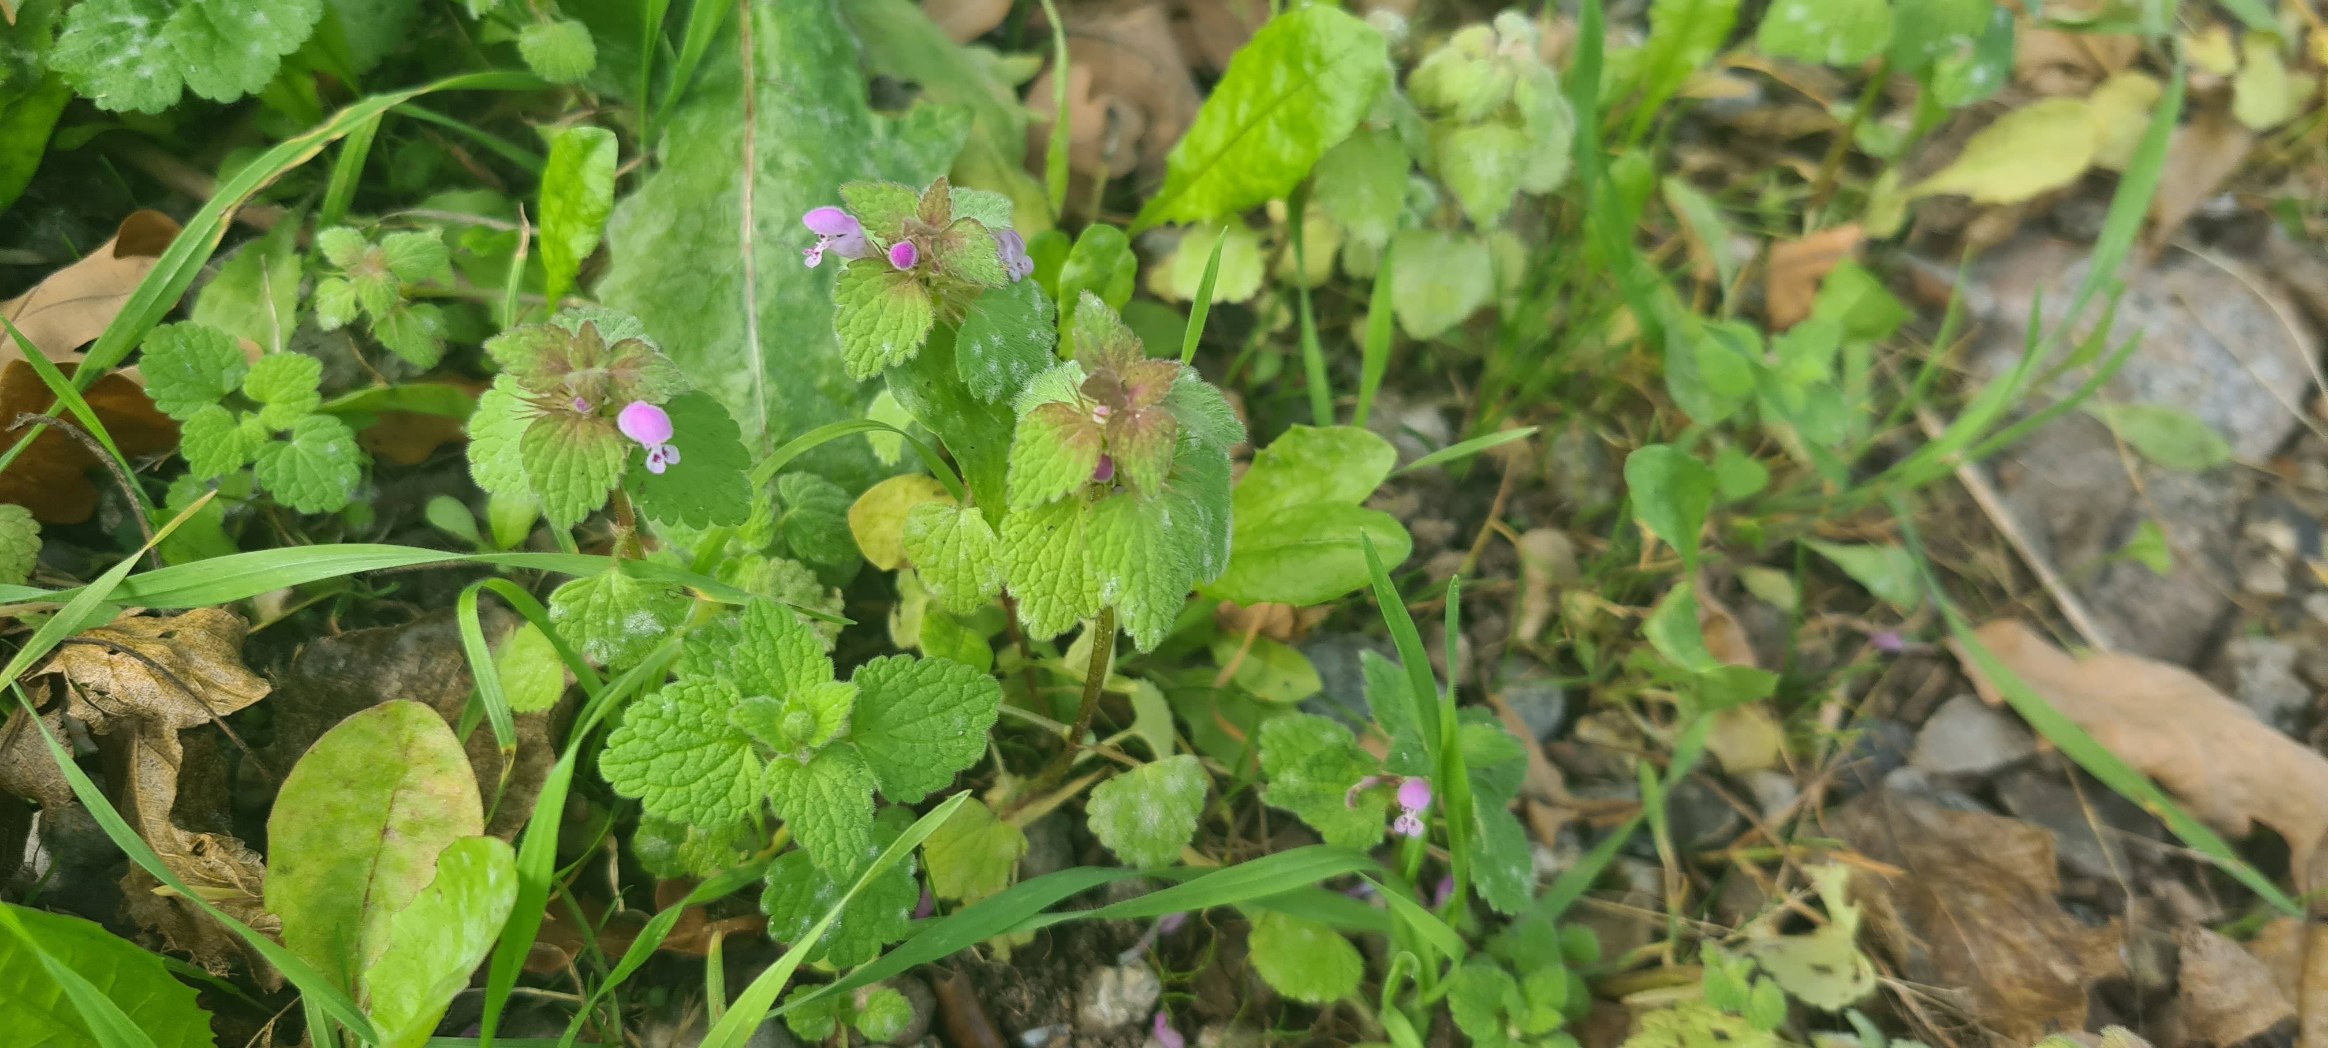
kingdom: Plantae
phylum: Tracheophyta
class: Magnoliopsida
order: Lamiales
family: Lamiaceae
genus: Lamium
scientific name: Lamium purpureum
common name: Rød tvetand
